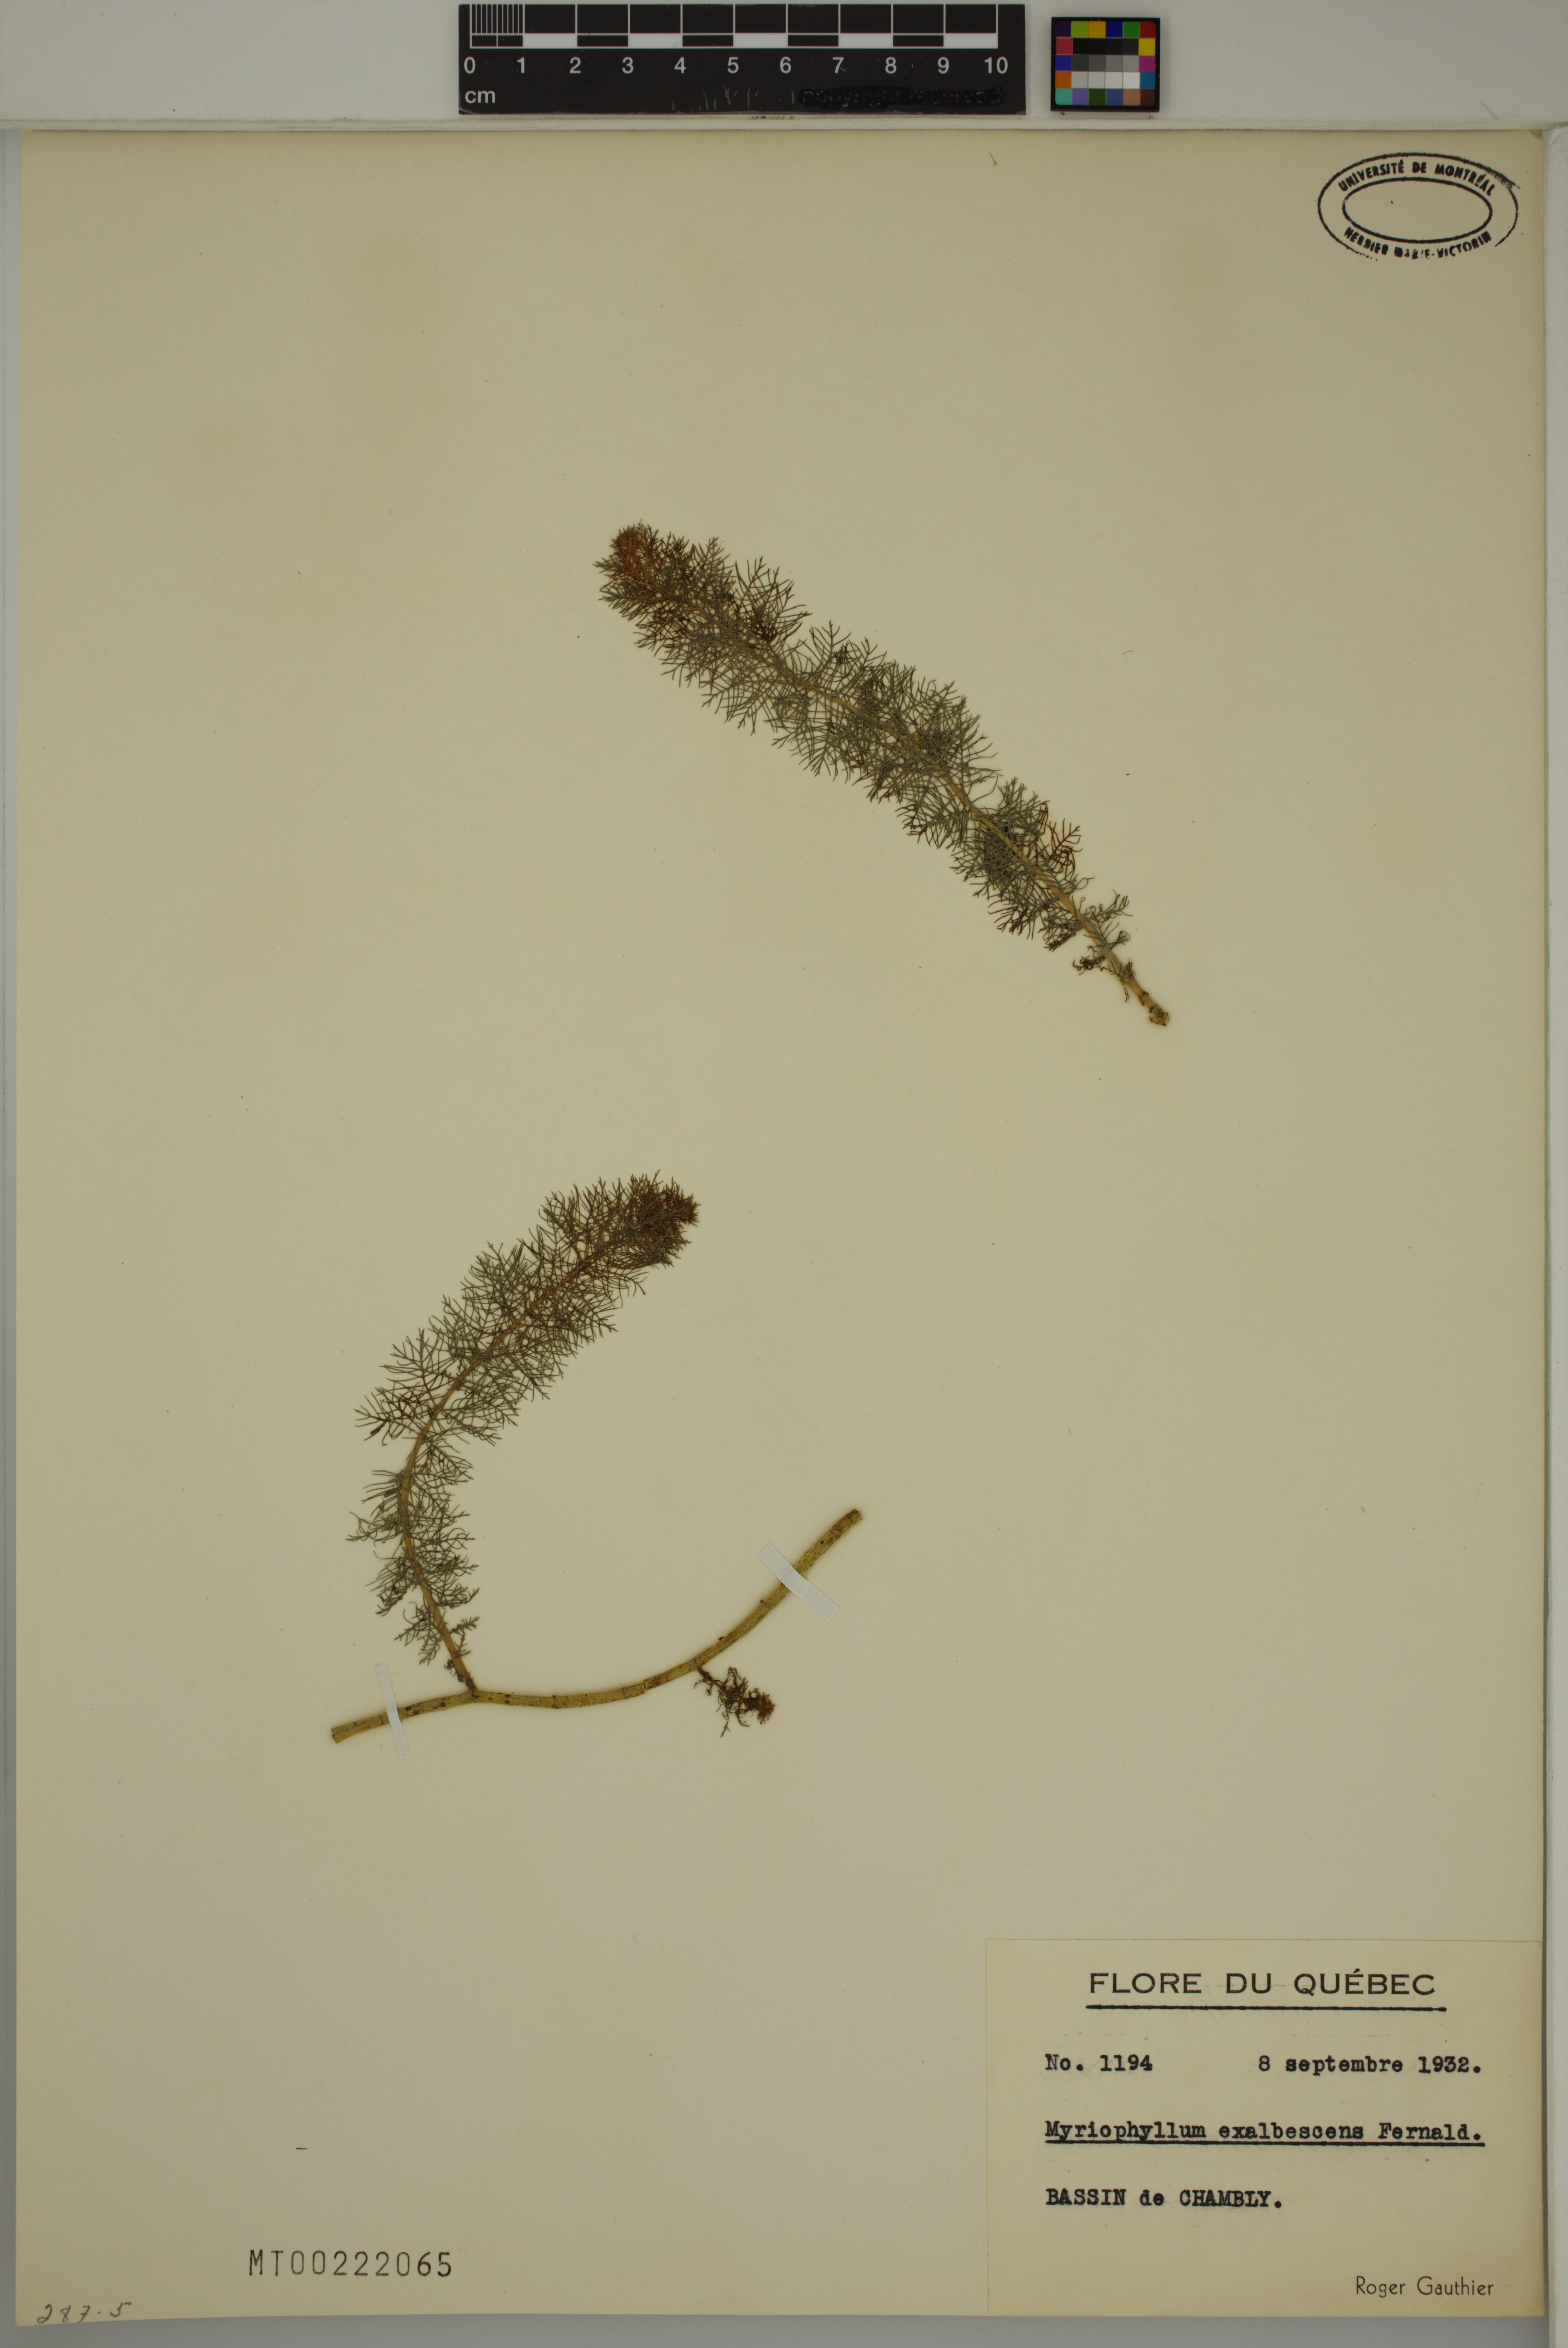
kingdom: Plantae
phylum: Tracheophyta
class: Magnoliopsida
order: Saxifragales
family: Haloragaceae
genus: Myriophyllum
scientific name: Myriophyllum sibiricum
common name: Siberian water-milfoil
